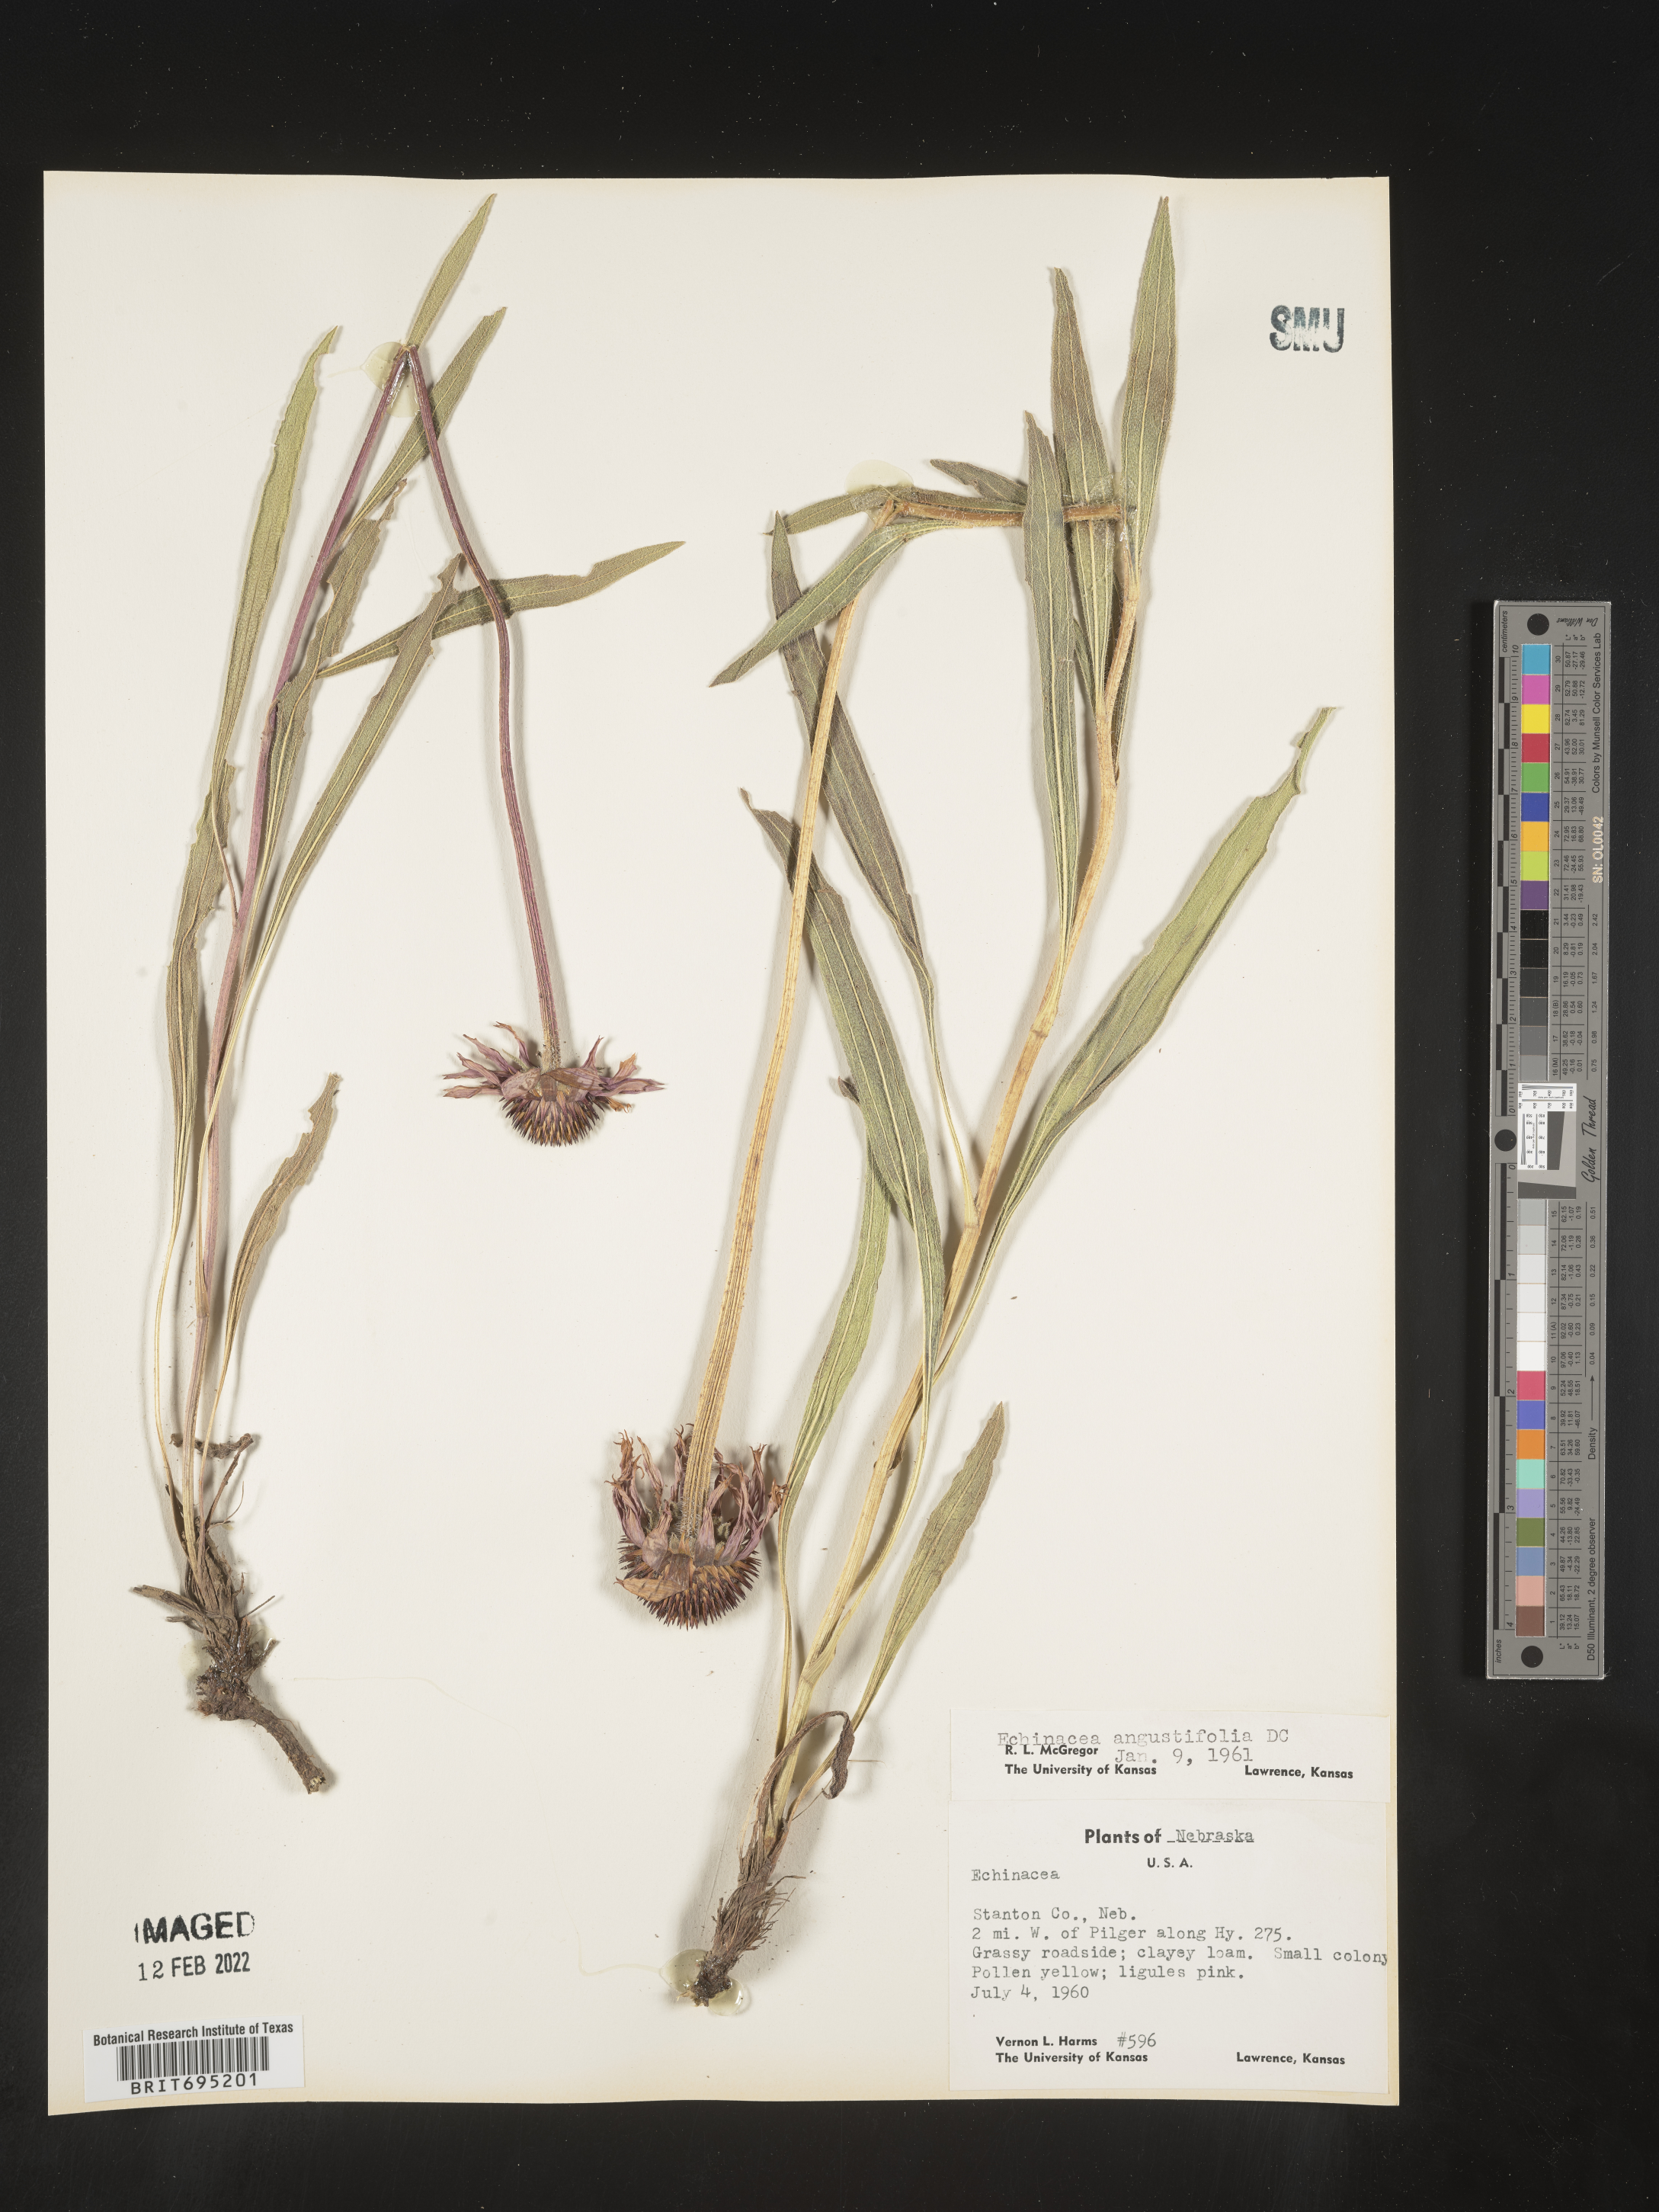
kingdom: Plantae
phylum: Tracheophyta
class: Magnoliopsida
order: Asterales
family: Asteraceae
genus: Echinacea
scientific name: Echinacea angustifolia
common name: Black-sampson echinacea
